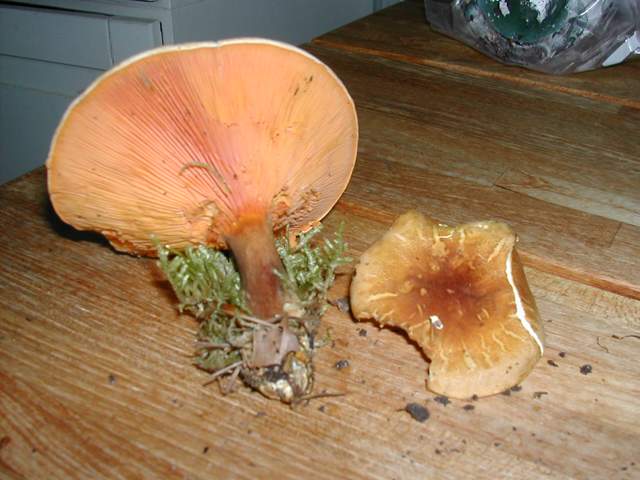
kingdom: Fungi
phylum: Basidiomycota
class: Agaricomycetes
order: Boletales
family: Hygrophoropsidaceae
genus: Hygrophoropsis
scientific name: Hygrophoropsis rufa
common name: brunfiltet orangekantarel
